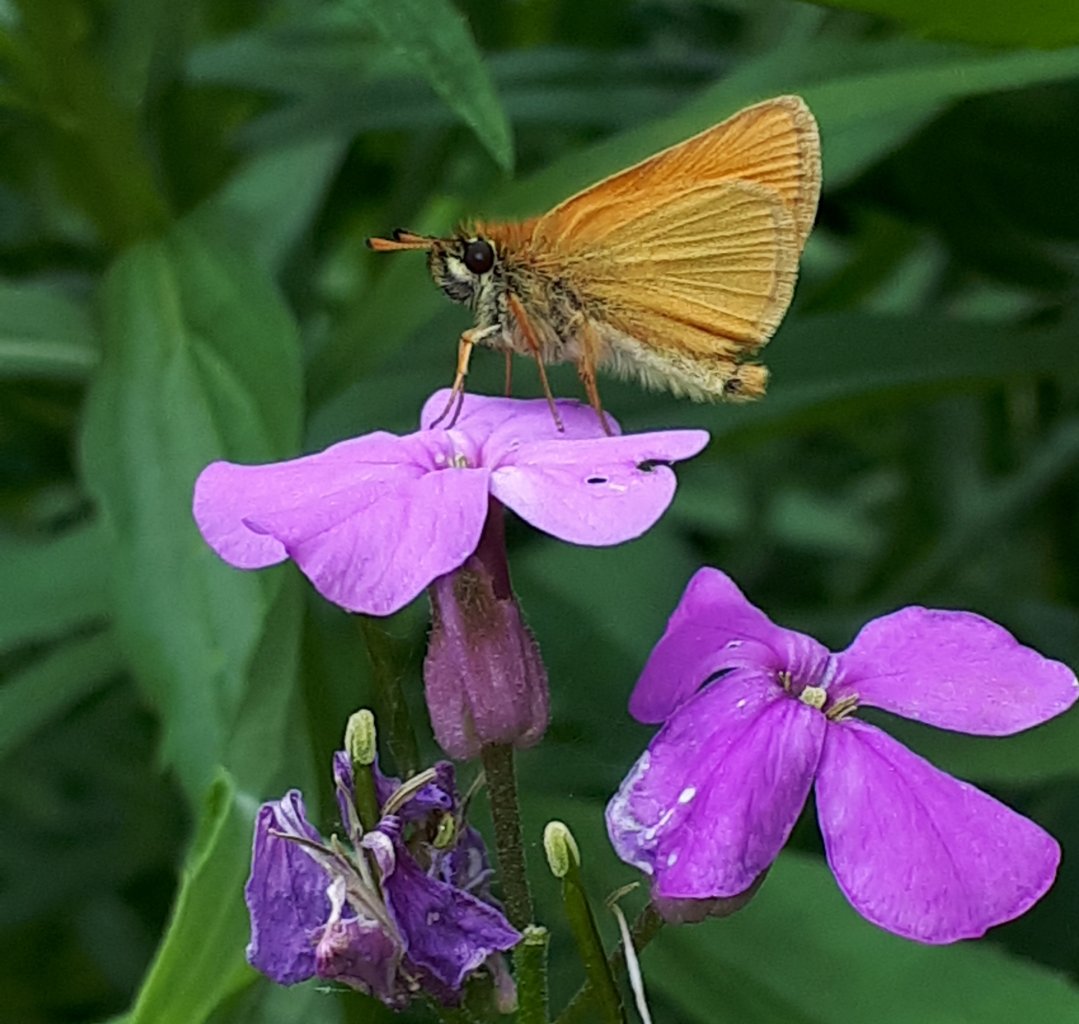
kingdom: Animalia
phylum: Arthropoda
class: Insecta
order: Lepidoptera
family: Hesperiidae
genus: Thymelicus
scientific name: Thymelicus lineola
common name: European Skipper
